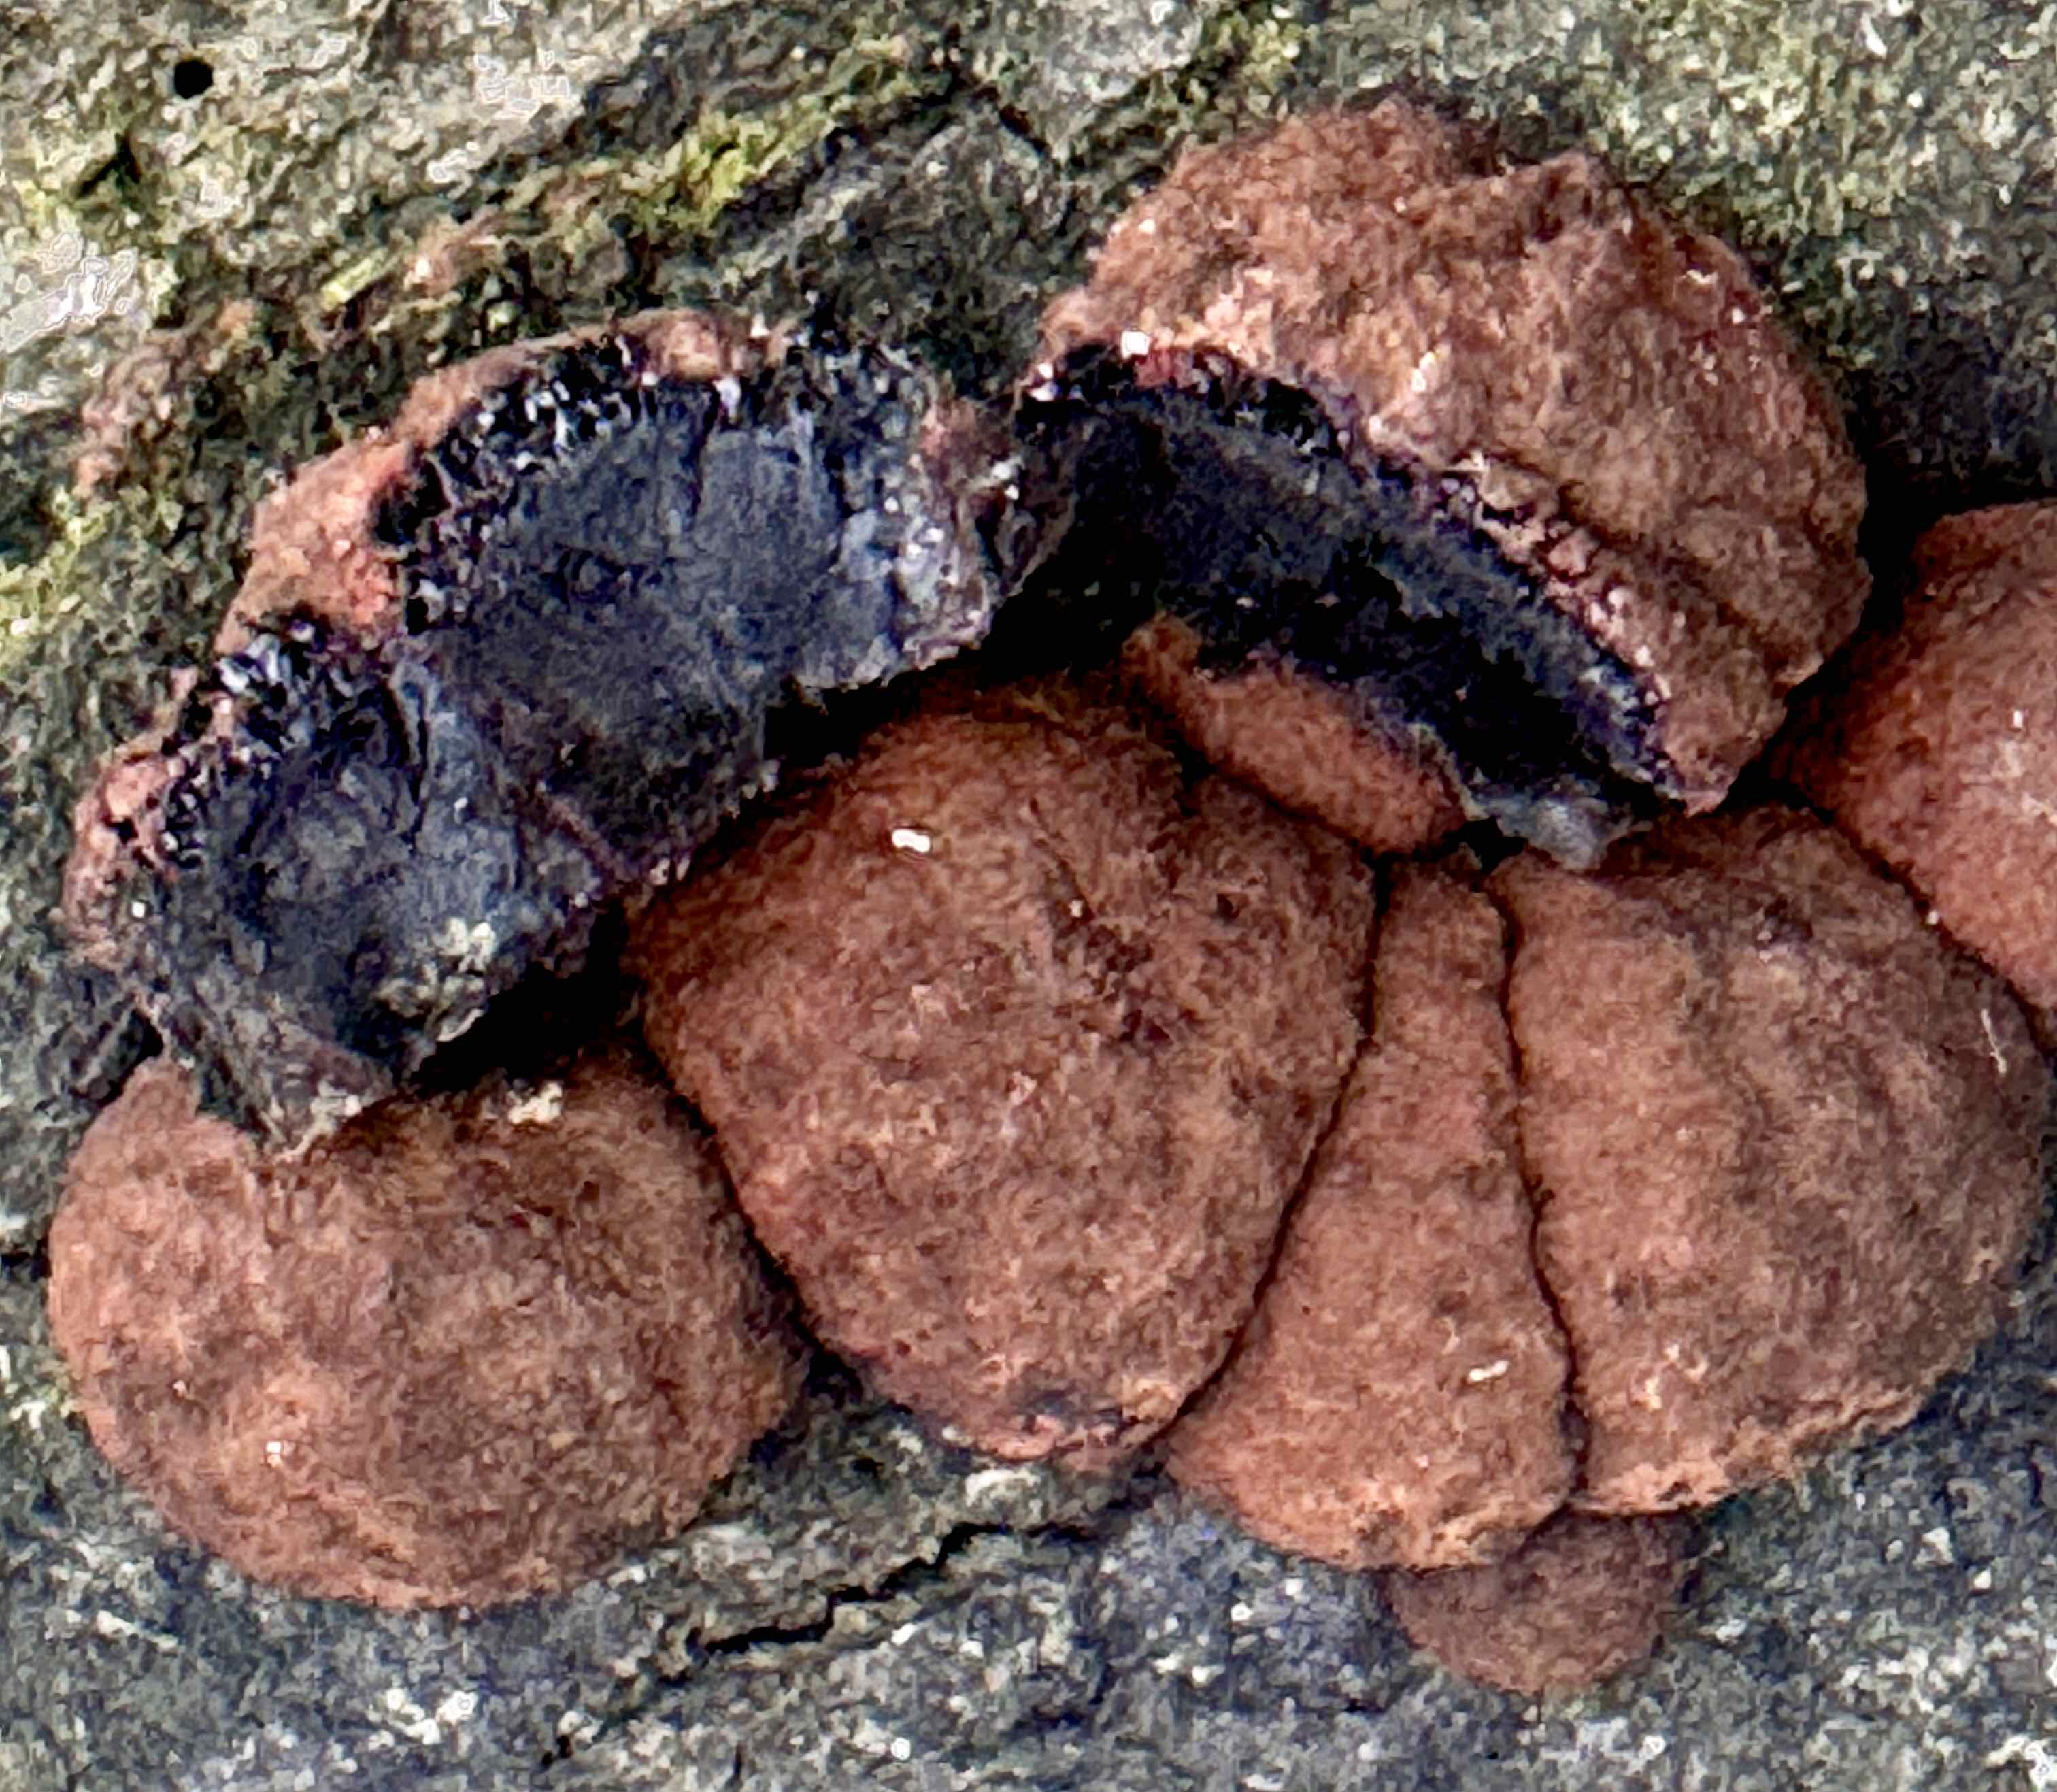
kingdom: Fungi
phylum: Ascomycota
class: Sordariomycetes
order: Xylariales
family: Hypoxylaceae
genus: Hypoxylon
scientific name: Hypoxylon fragiforme
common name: kuljordbær
